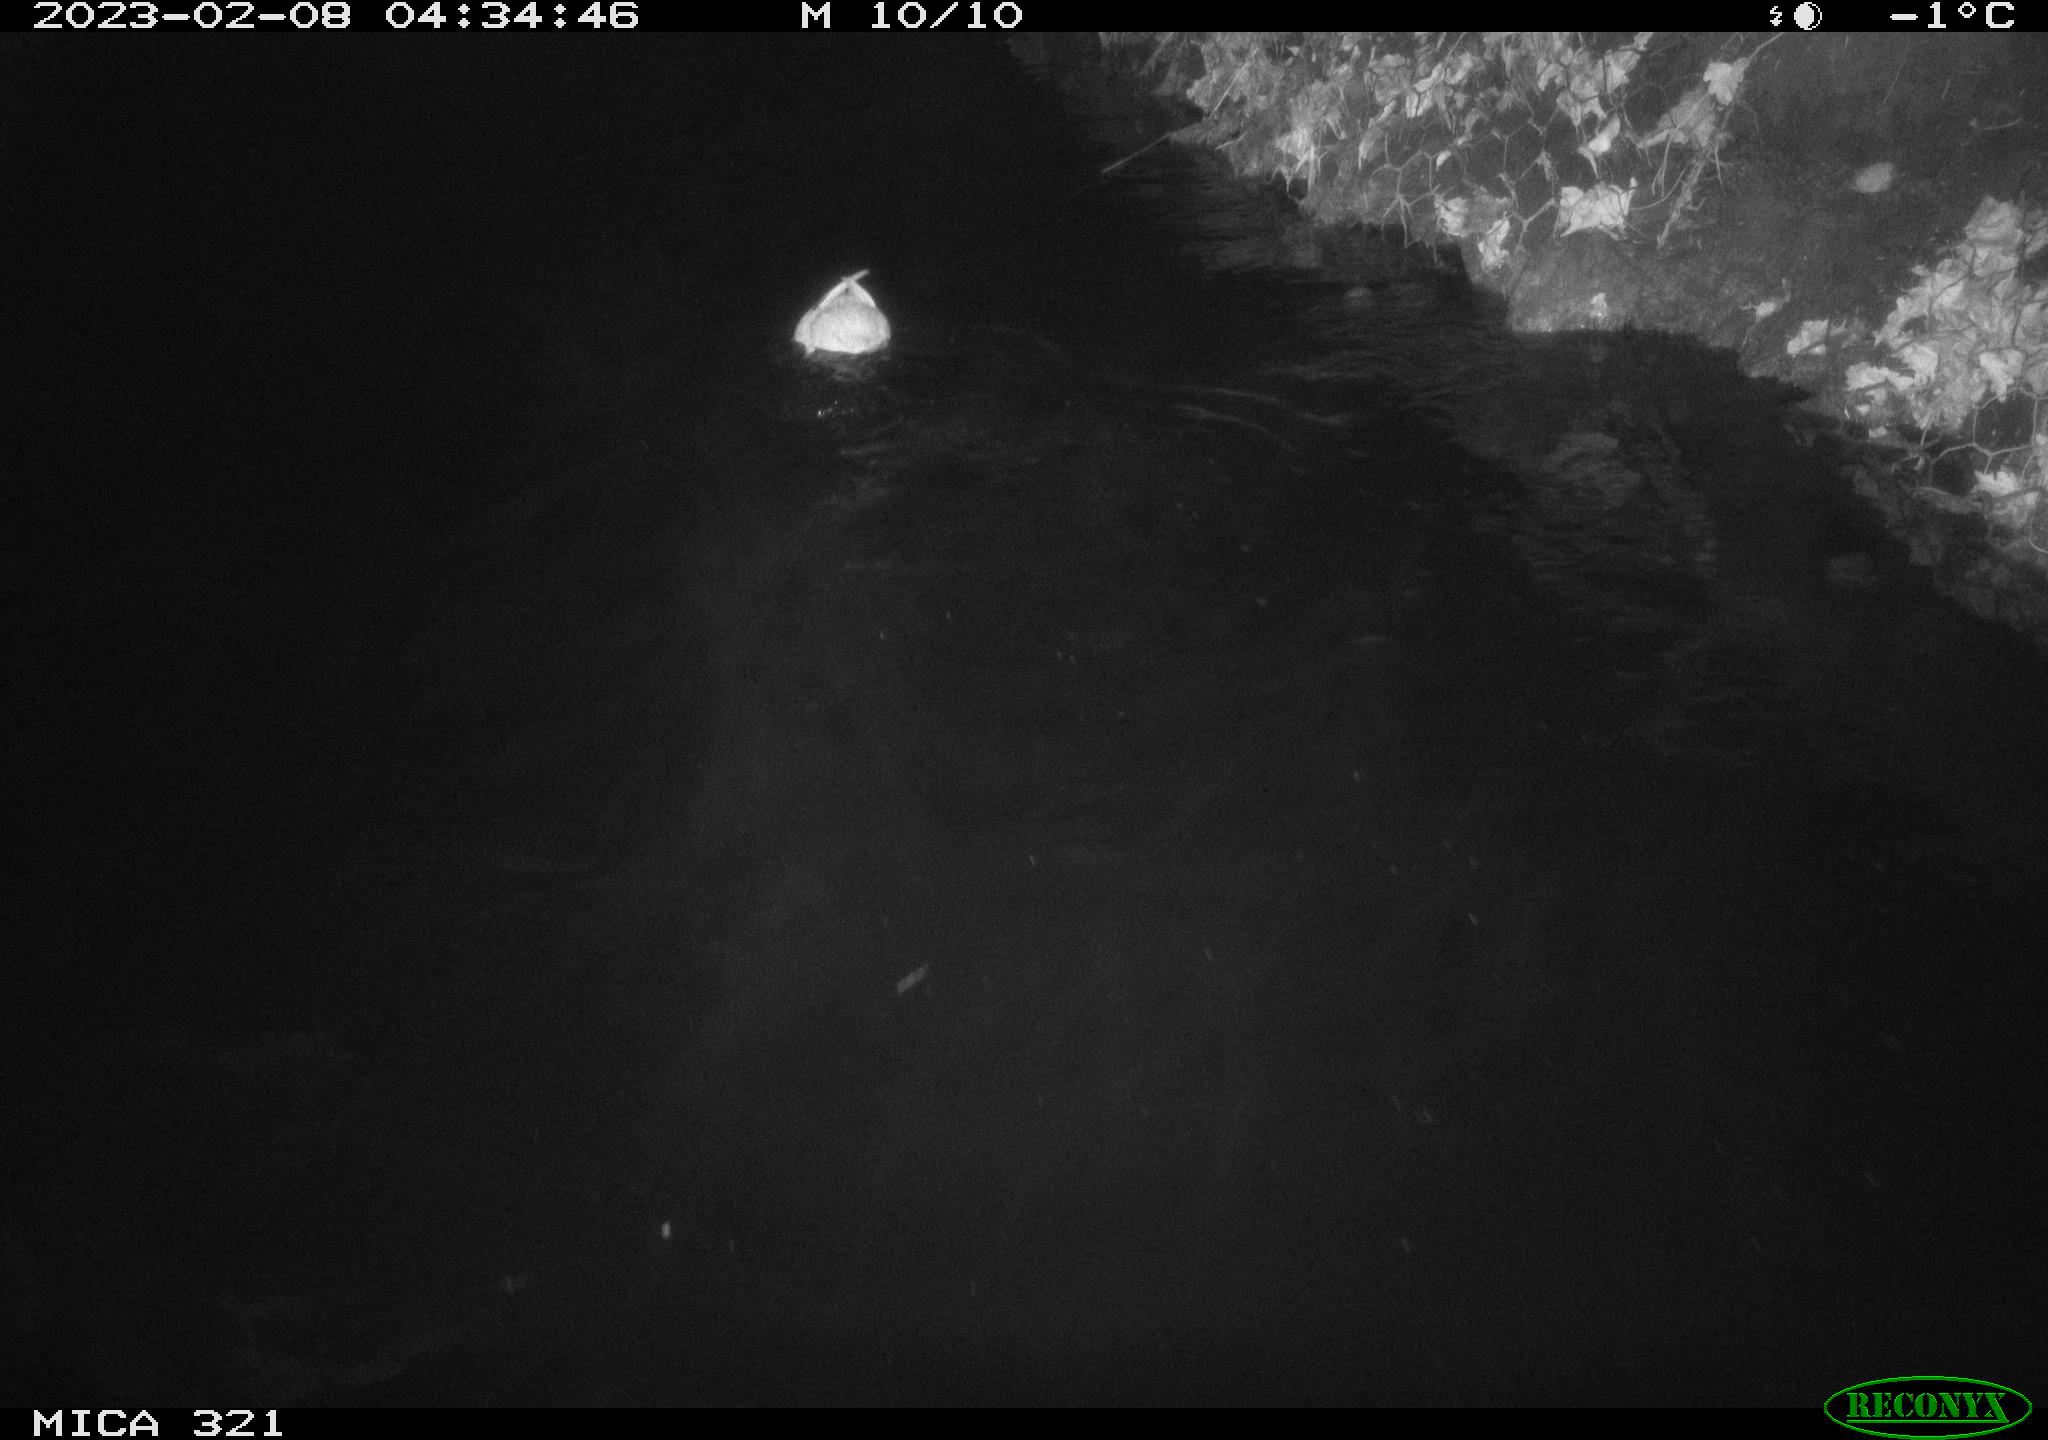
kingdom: Animalia
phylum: Chordata
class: Aves
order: Anseriformes
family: Anatidae
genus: Anas
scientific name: Anas
